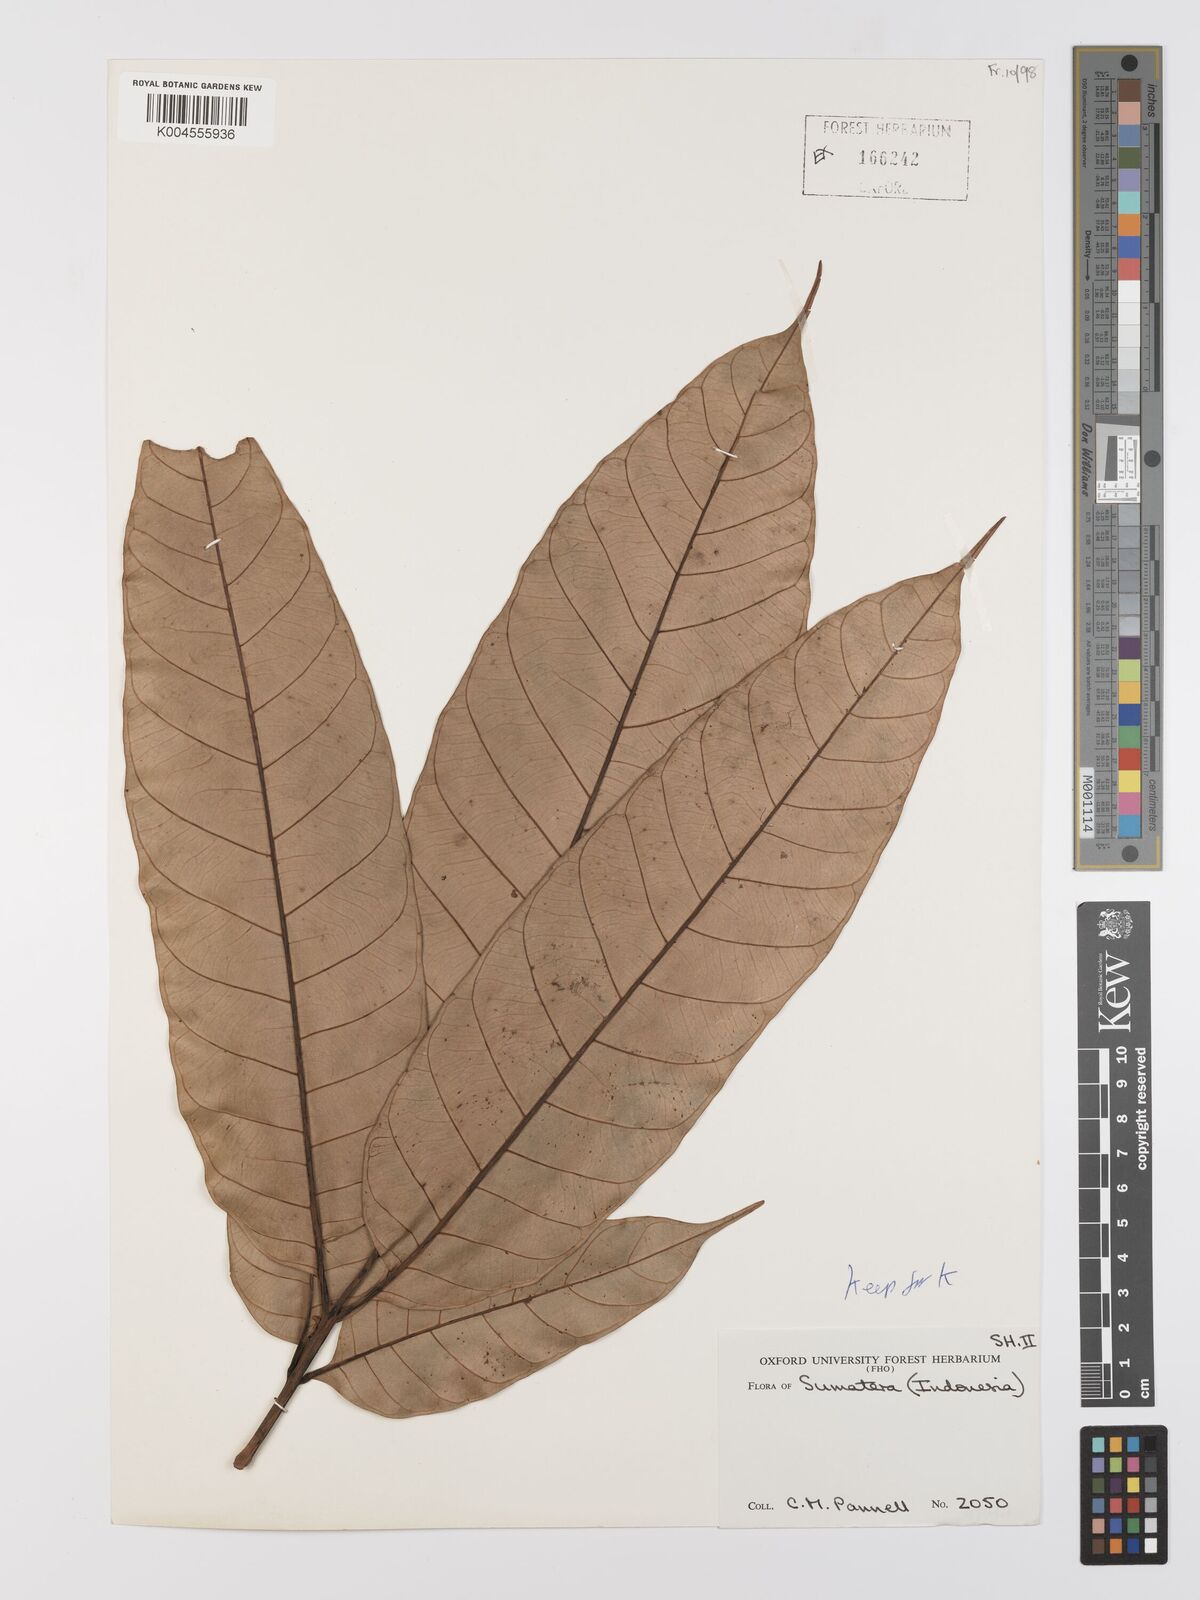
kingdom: Plantae
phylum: Tracheophyta
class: Magnoliopsida
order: Rosales
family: Moraceae
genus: Artocarpus
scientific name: Artocarpus anisophyllus
